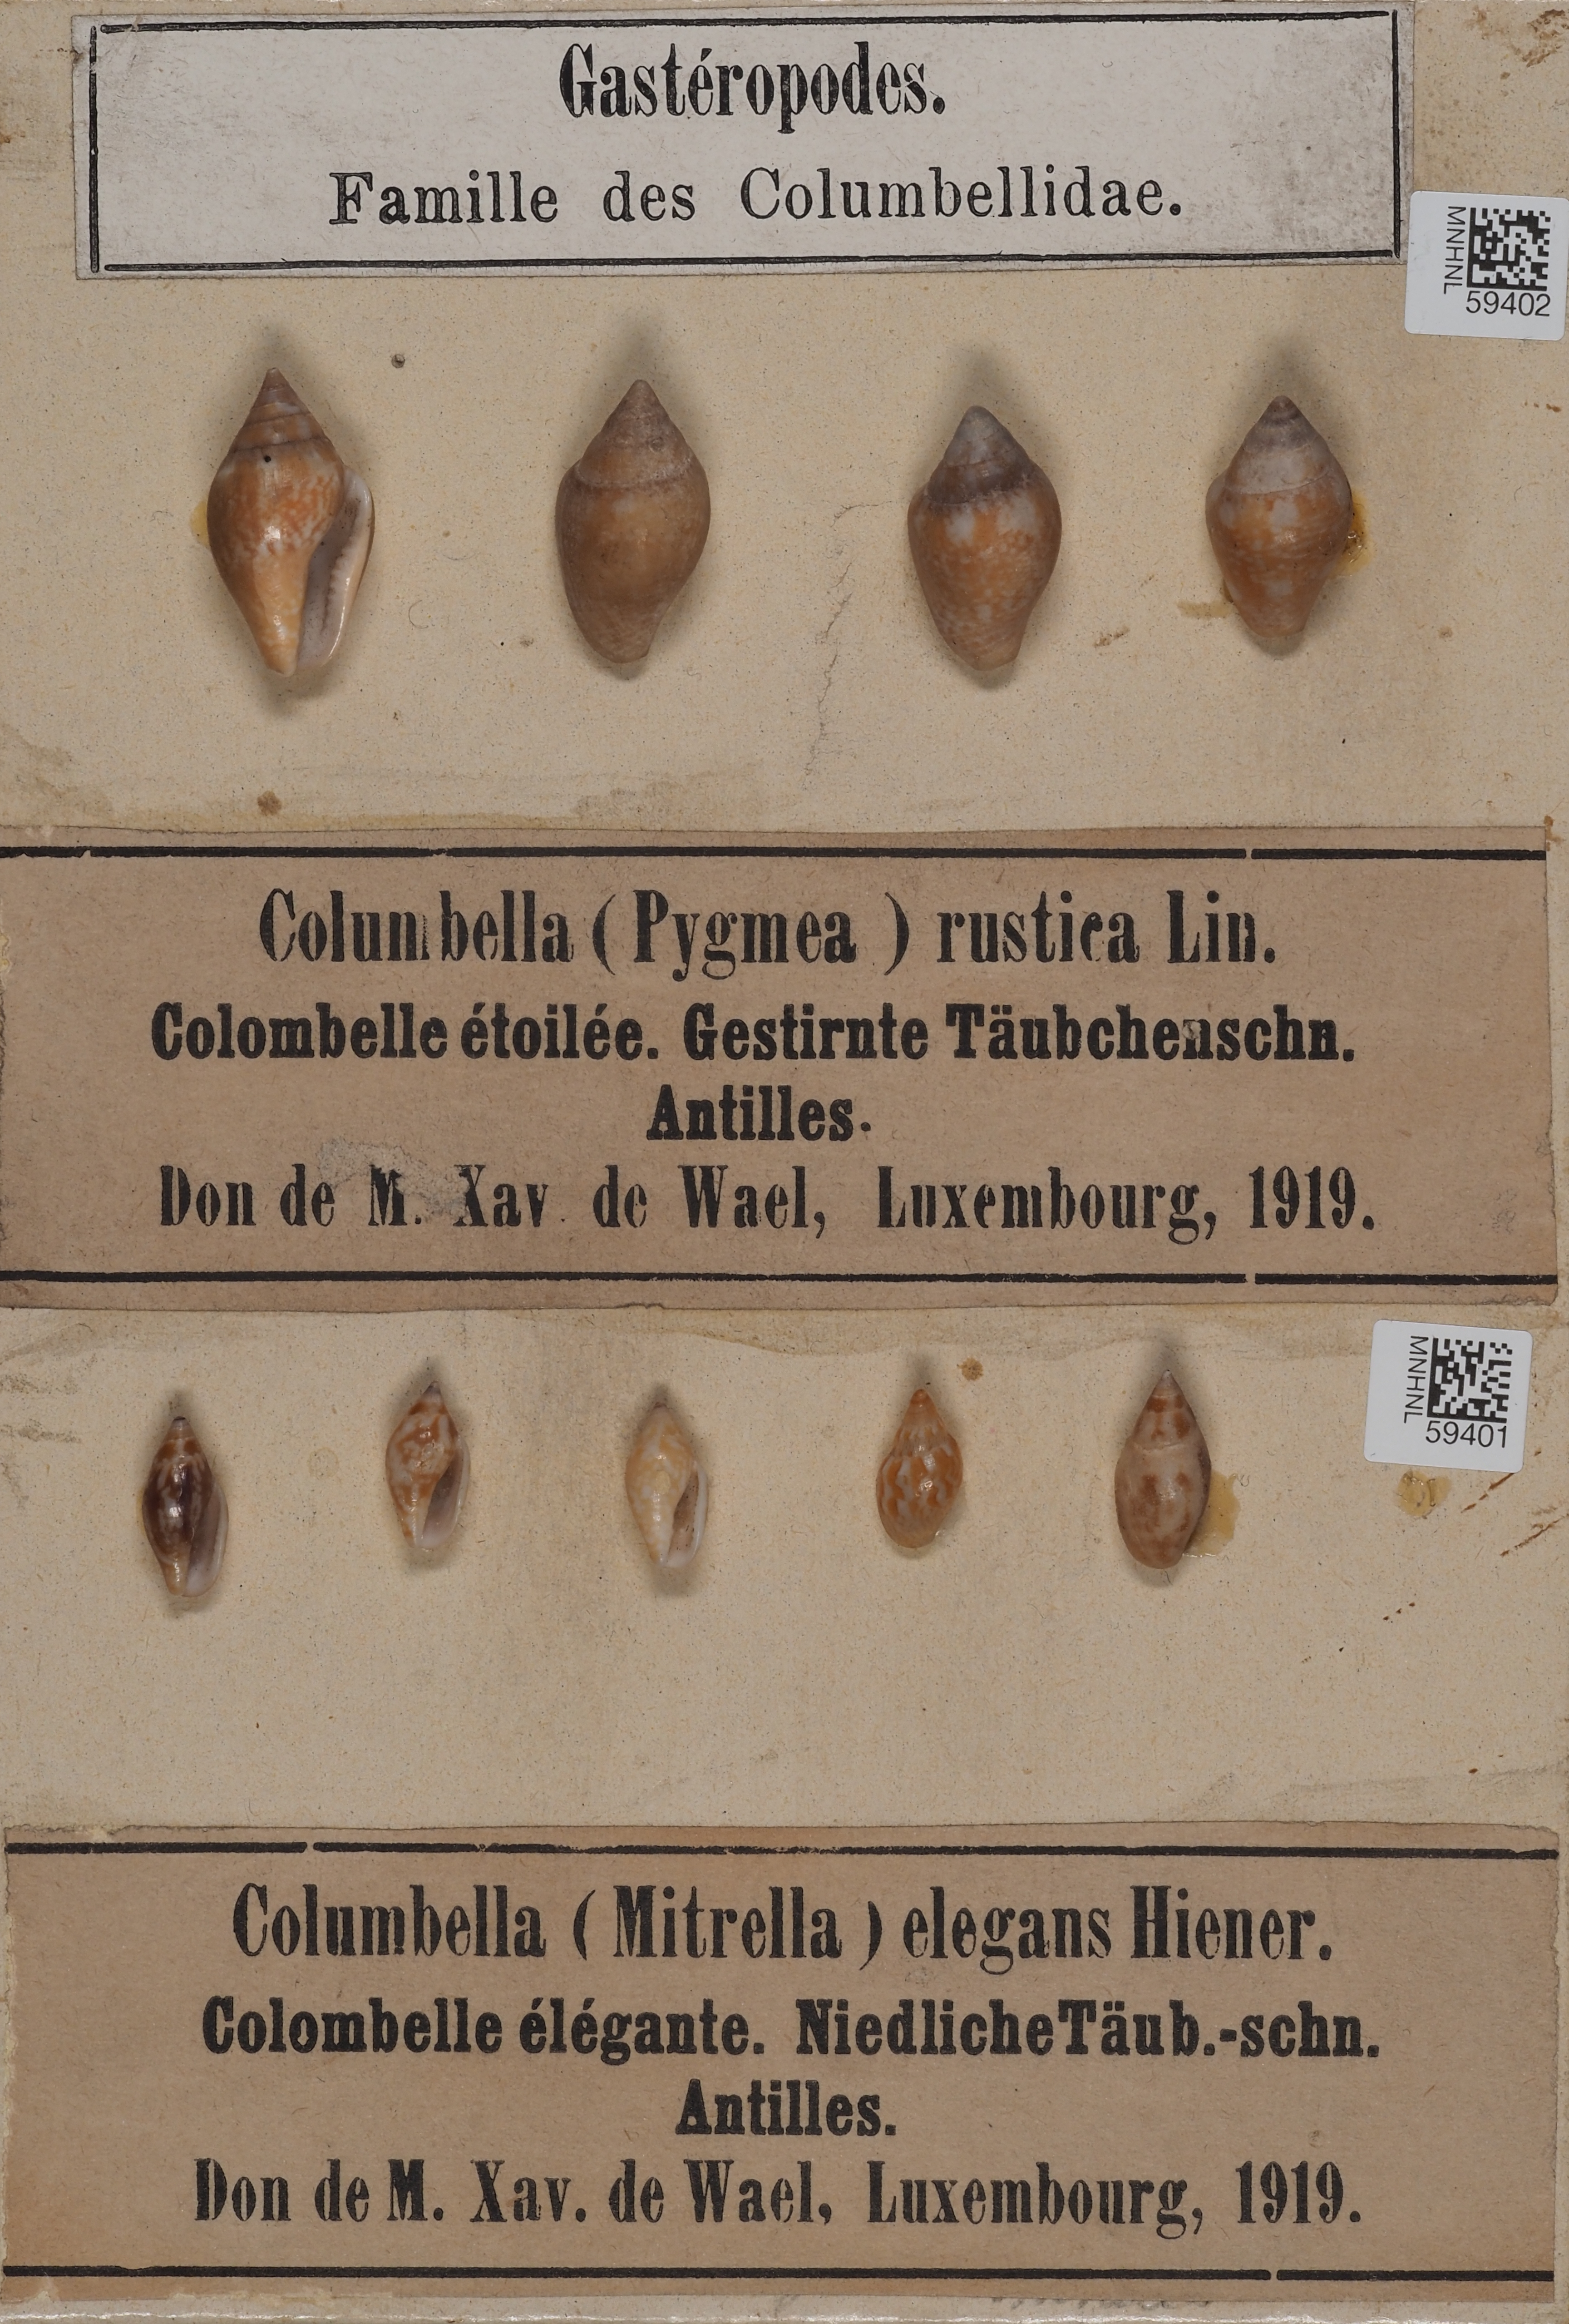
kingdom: Animalia
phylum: Mollusca
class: Gastropoda
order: Neogastropoda
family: Columbellidae
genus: Strombina
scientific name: Strombina elegans
